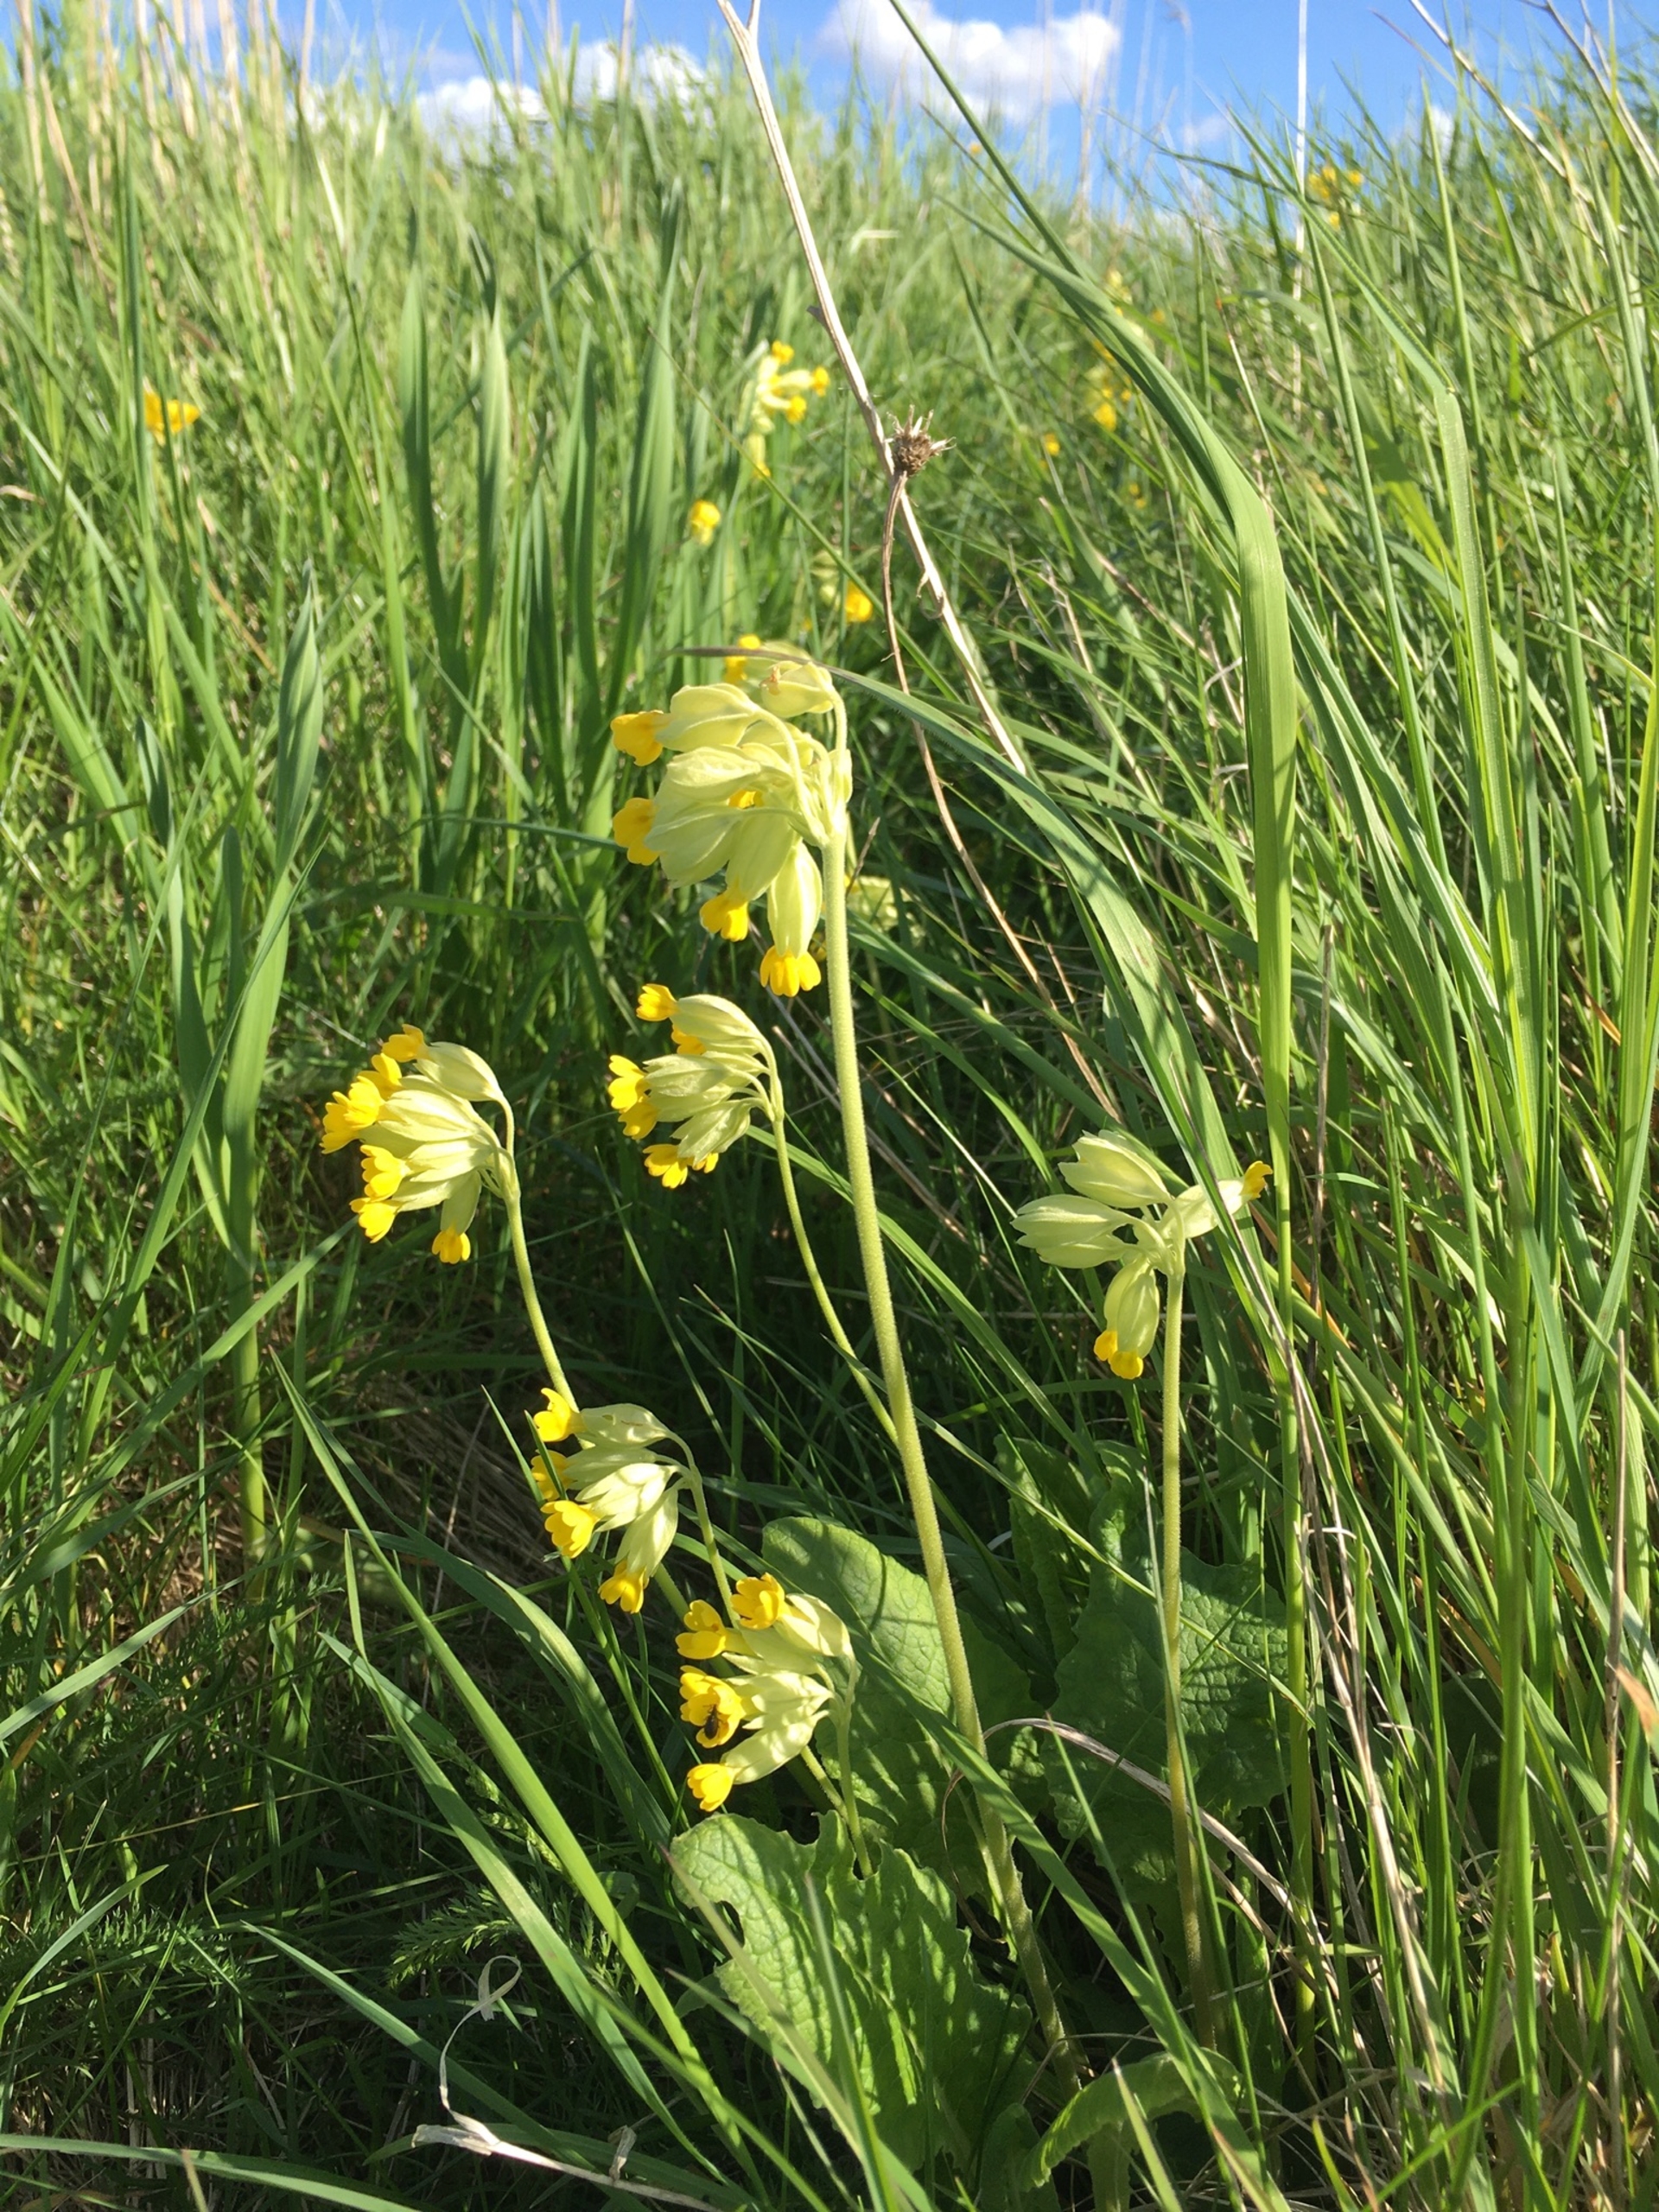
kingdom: Plantae
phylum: Tracheophyta
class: Magnoliopsida
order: Ericales
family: Primulaceae
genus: Primula
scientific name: Primula veris
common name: Hulkravet kodriver
